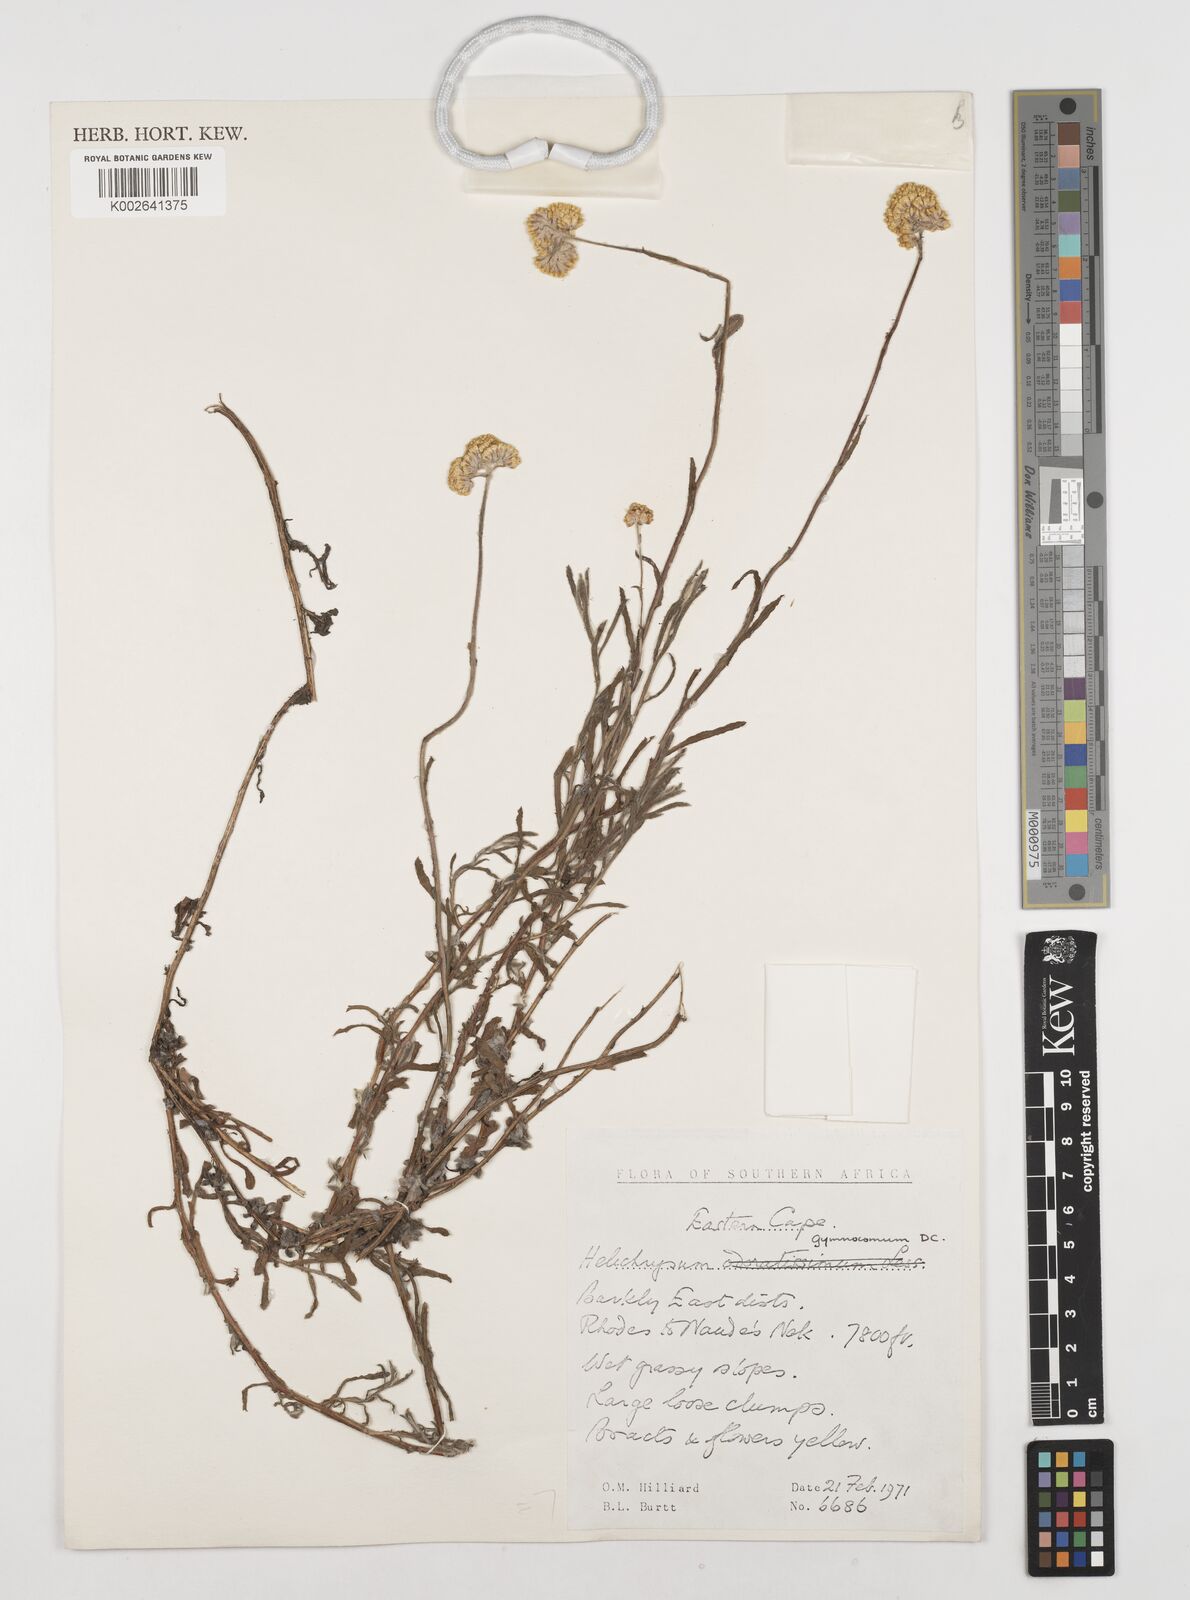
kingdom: Plantae
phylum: Tracheophyta
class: Magnoliopsida
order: Asterales
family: Asteraceae
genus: Helichrysum
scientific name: Helichrysum gymnocomum
